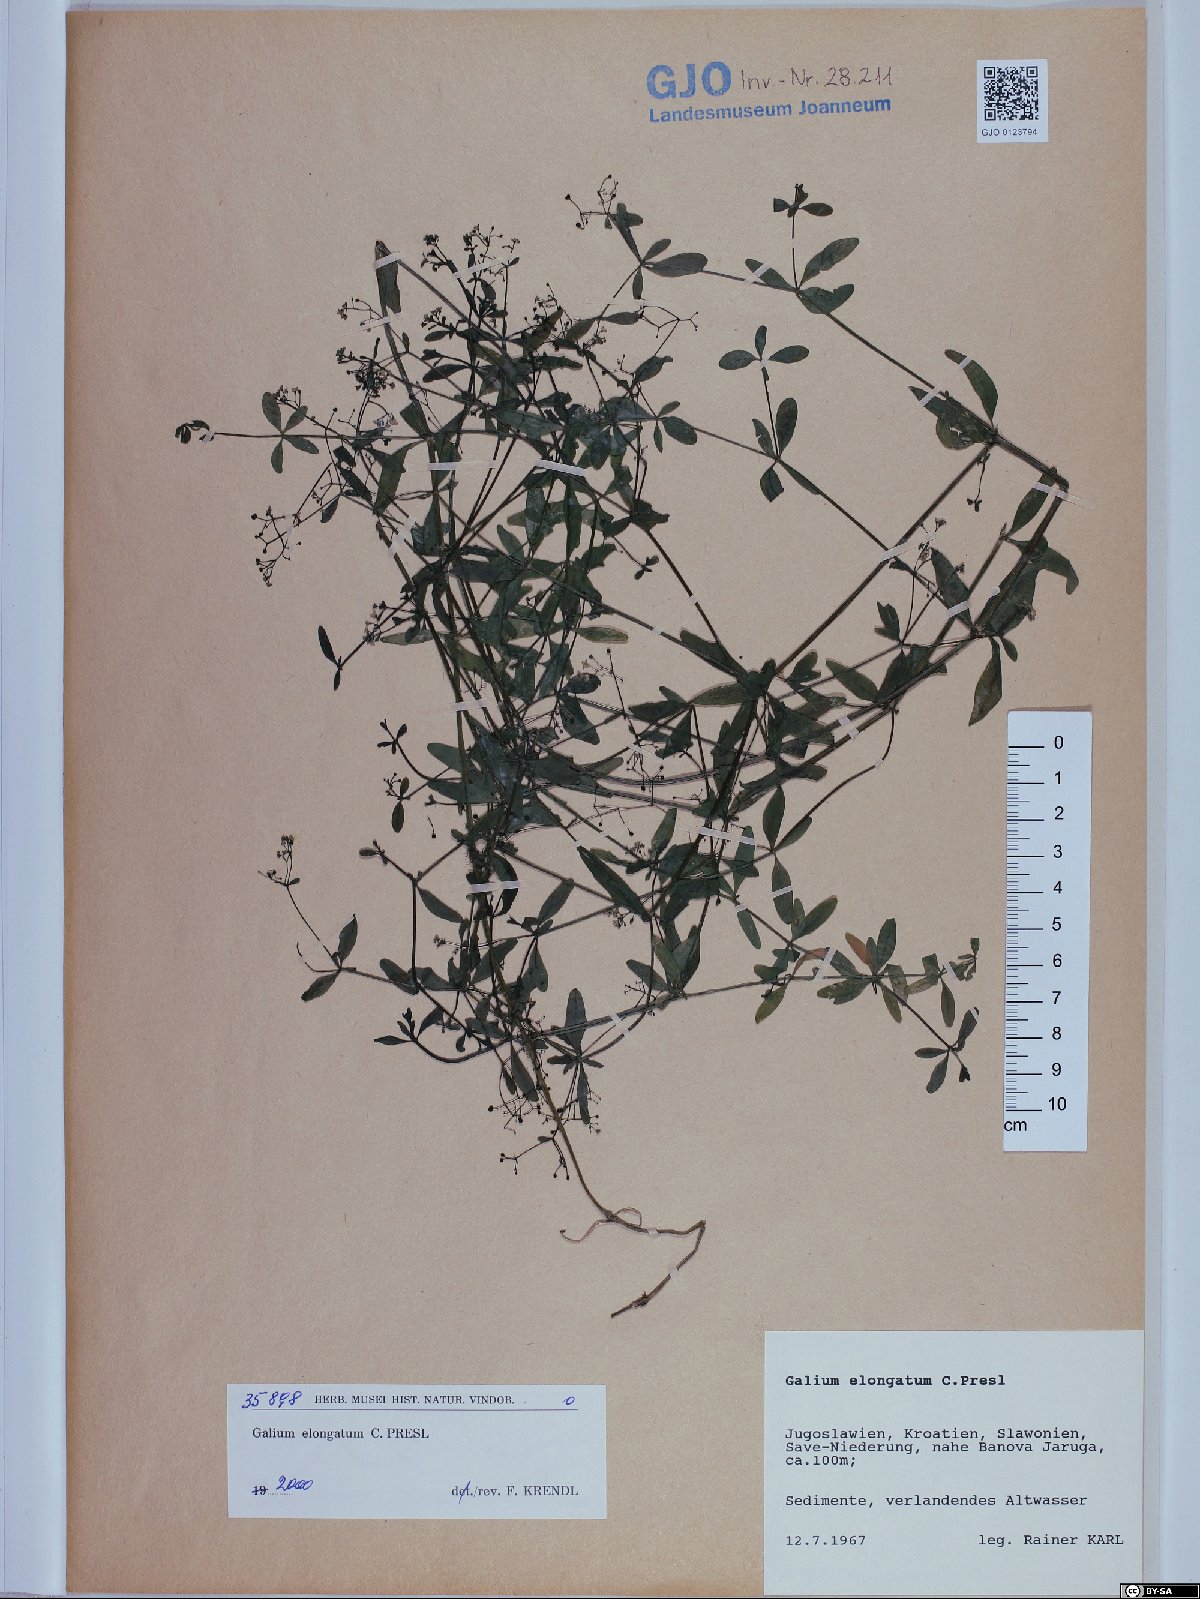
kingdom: Plantae
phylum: Tracheophyta
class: Magnoliopsida
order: Gentianales
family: Rubiaceae
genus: Galium
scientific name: Galium elongatum
